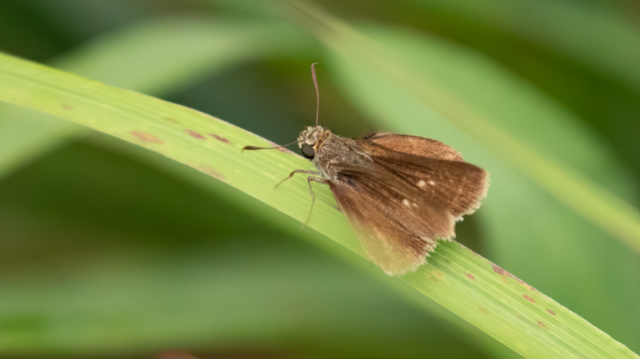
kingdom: Animalia
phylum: Arthropoda
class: Insecta
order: Lepidoptera
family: Hesperiidae
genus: Euphyes
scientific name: Euphyes vestris
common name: Dun Skipper
